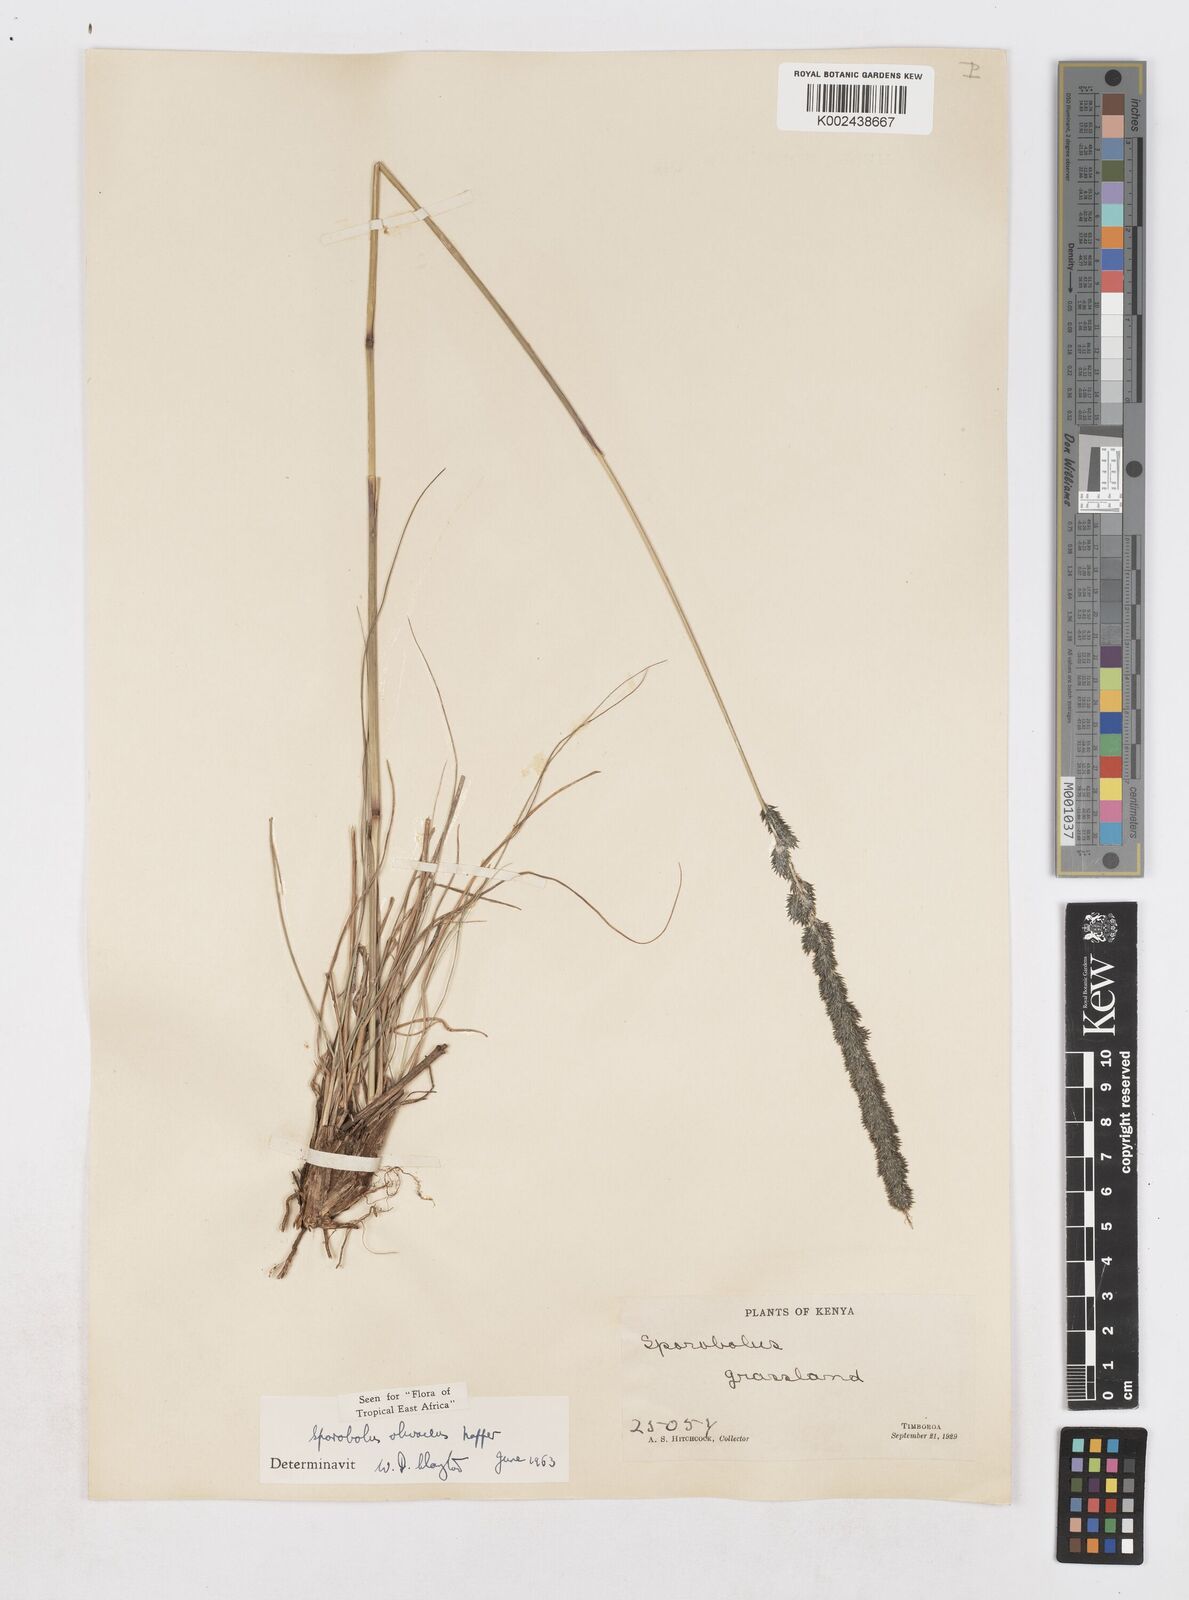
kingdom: Plantae
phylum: Tracheophyta
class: Liliopsida
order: Poales
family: Poaceae
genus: Sporobolus
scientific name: Sporobolus olivaceus
